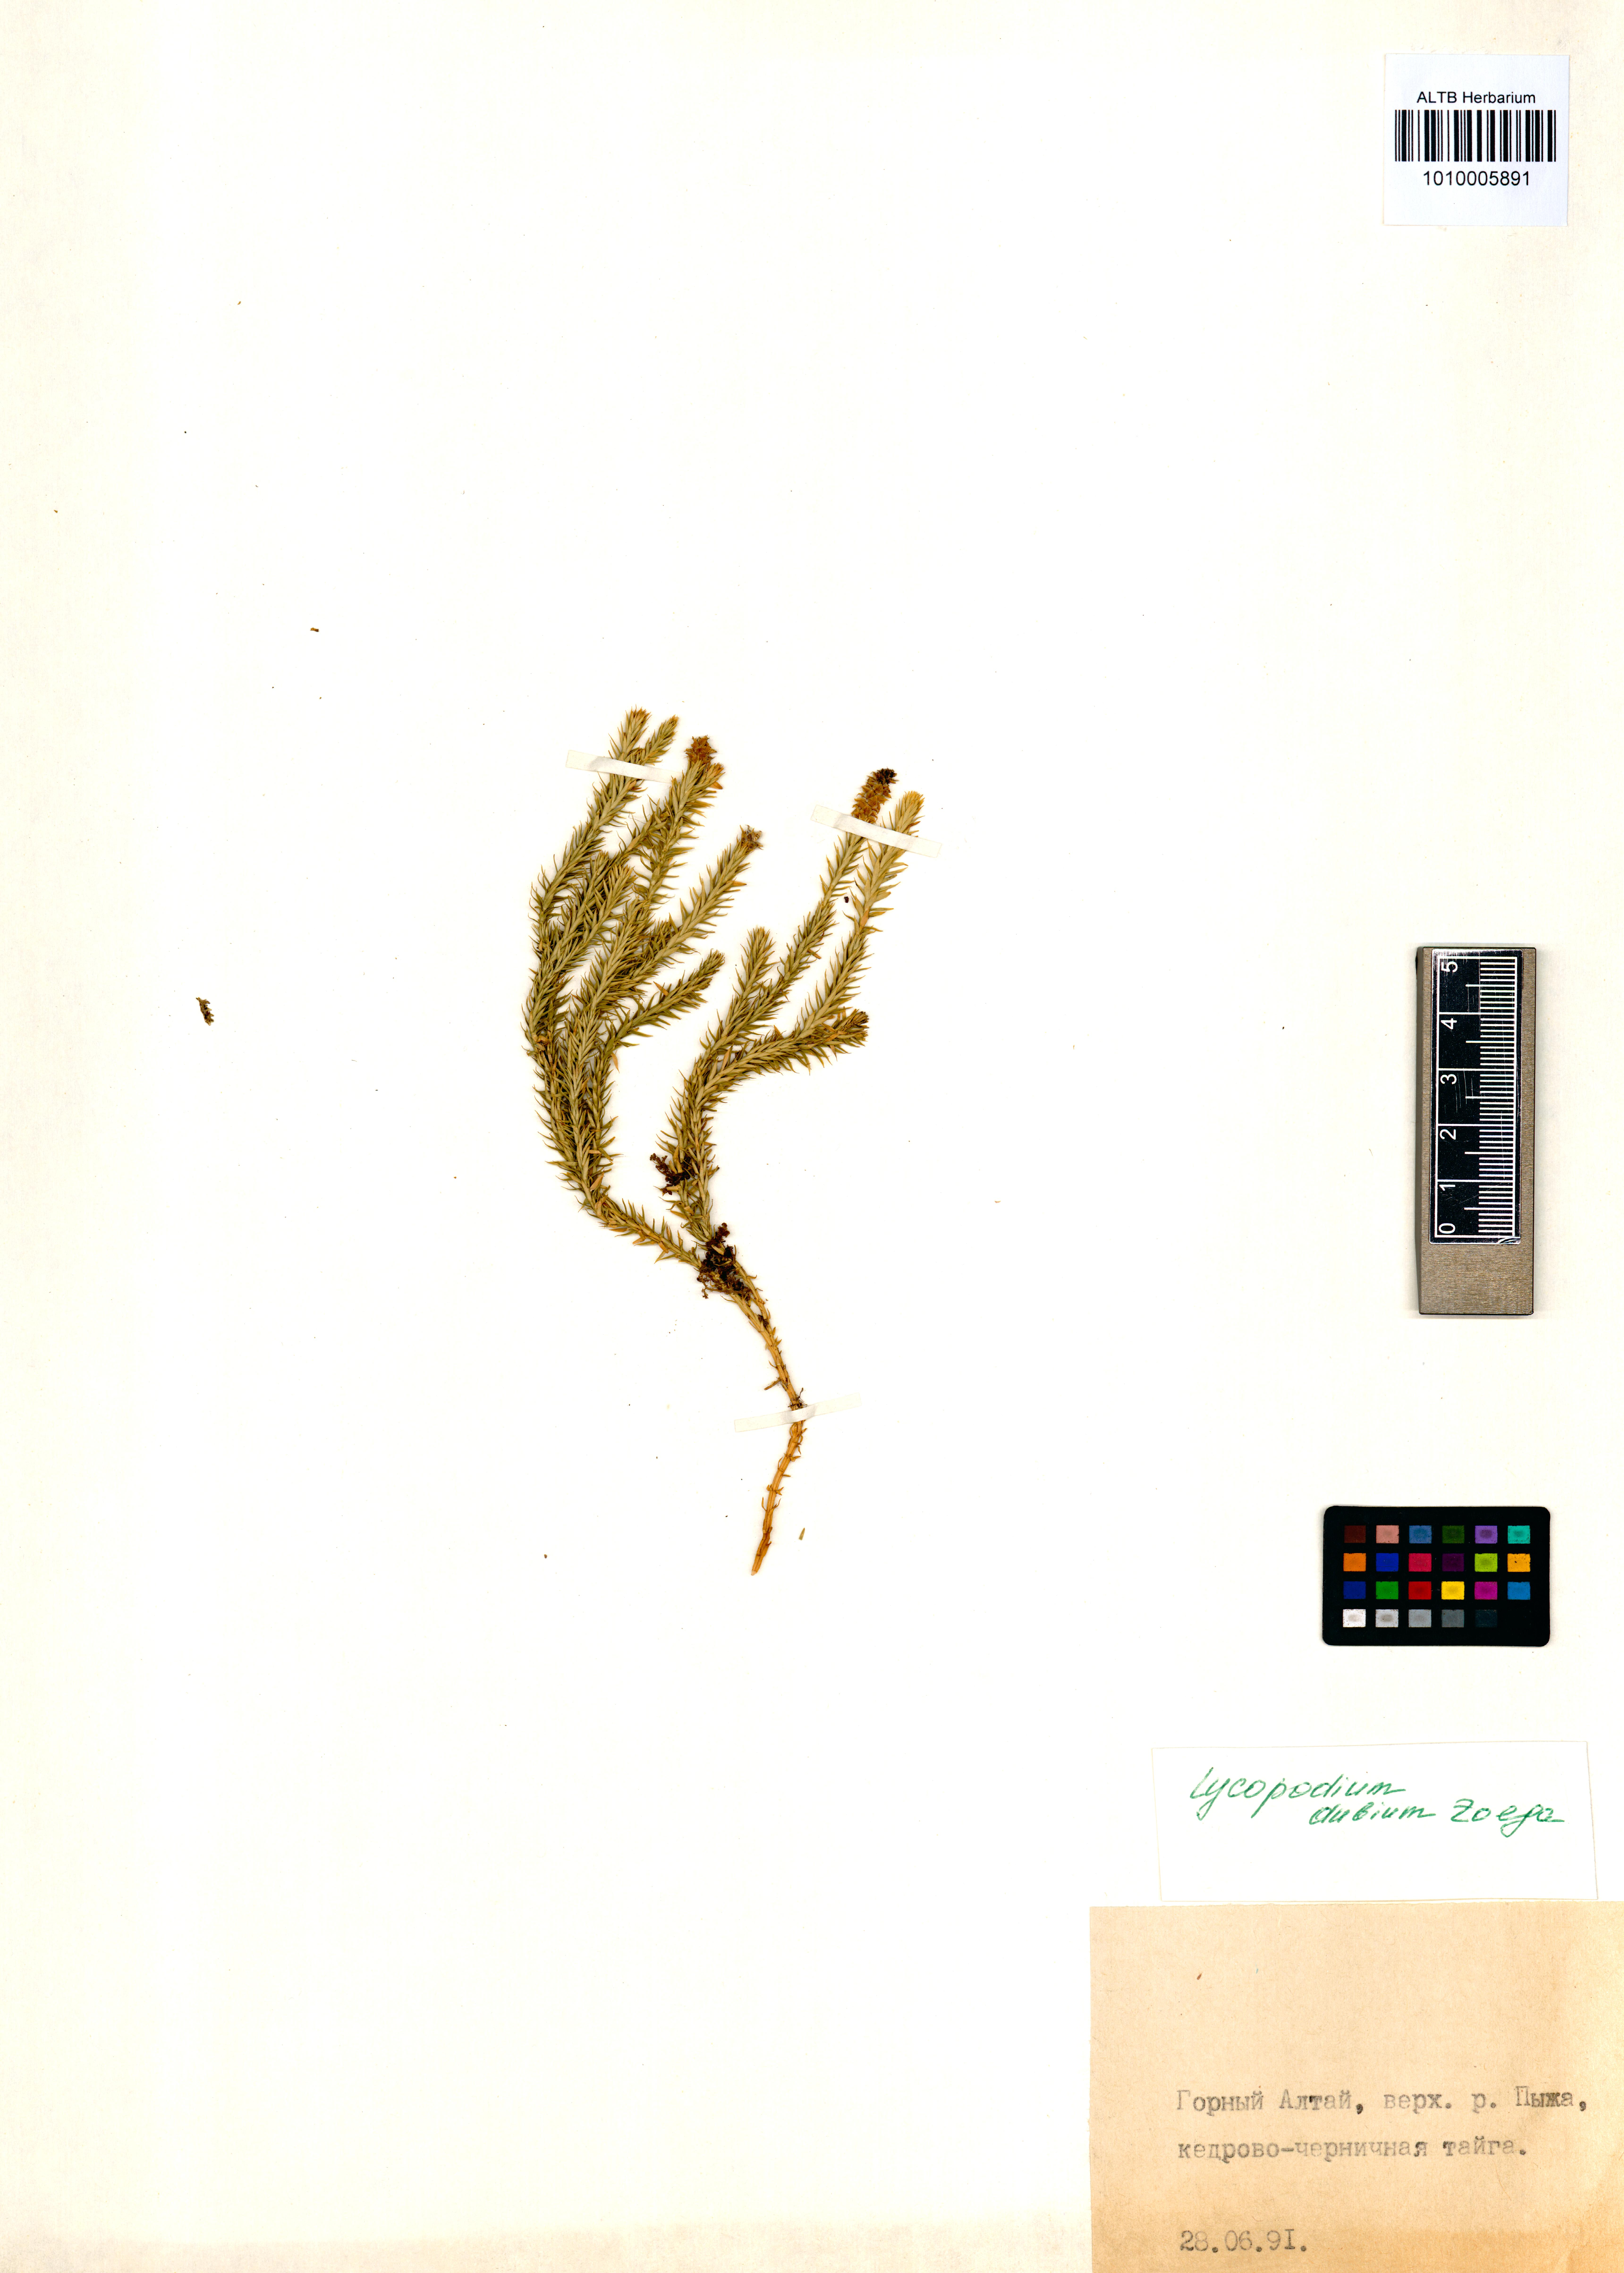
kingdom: Plantae
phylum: Tracheophyta
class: Lycopodiopsida
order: Lycopodiales
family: Lycopodiaceae
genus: Spinulum
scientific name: Spinulum annotinum
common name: Interrupted club-moss
